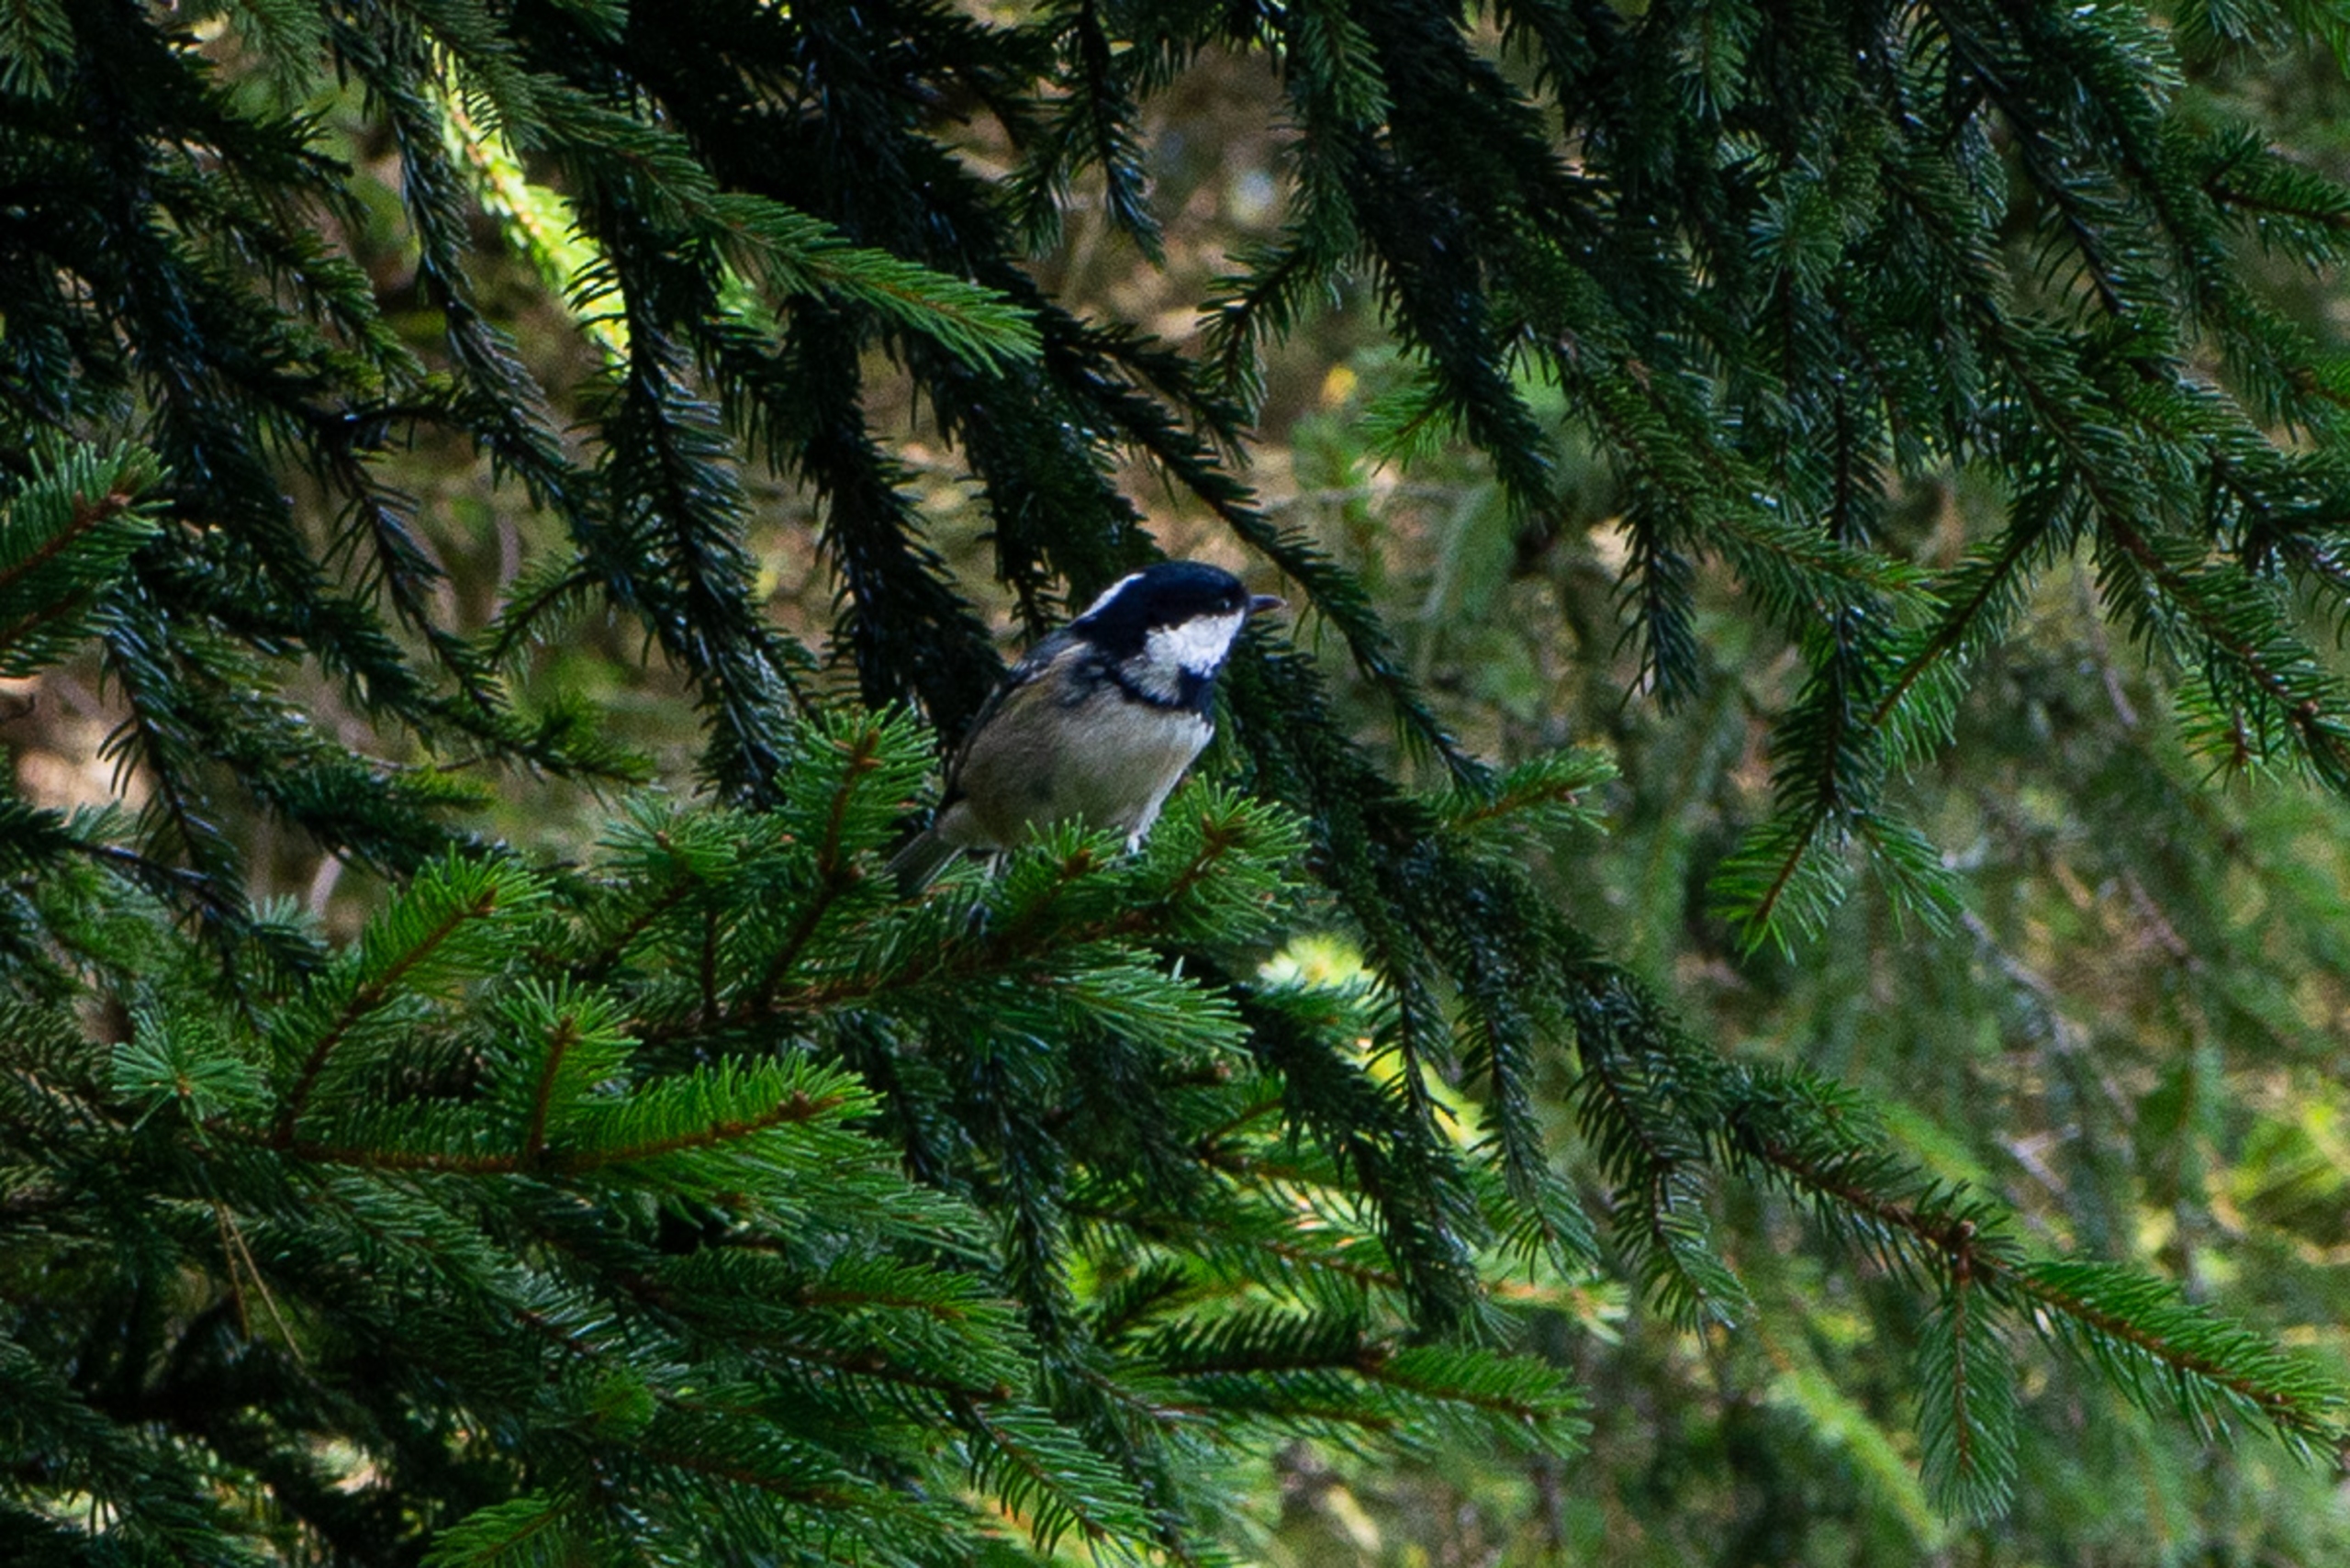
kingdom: Animalia
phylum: Chordata
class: Aves
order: Passeriformes
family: Paridae
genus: Periparus
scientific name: Periparus ater
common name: Sortmejse
